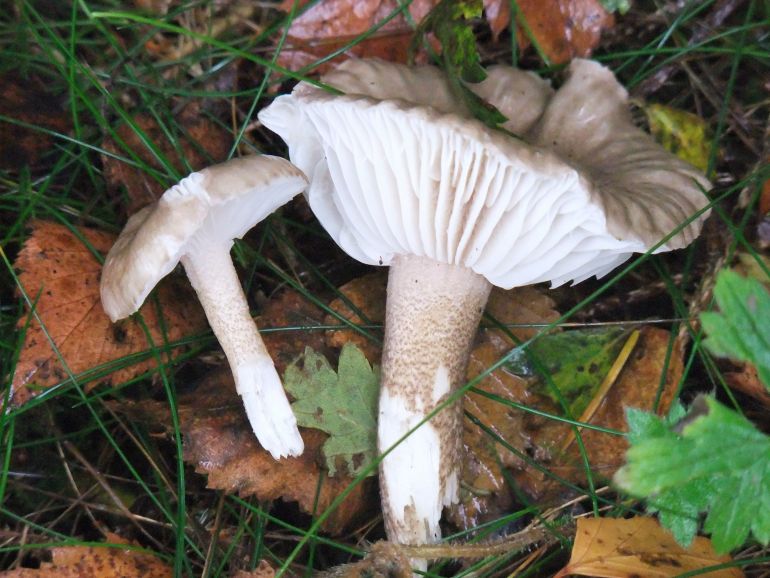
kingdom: Fungi
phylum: Basidiomycota
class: Agaricomycetes
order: Agaricales
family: Hygrophoraceae
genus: Hygrophorus
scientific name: Hygrophorus pustulatus
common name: mørkprikket sneglehat
